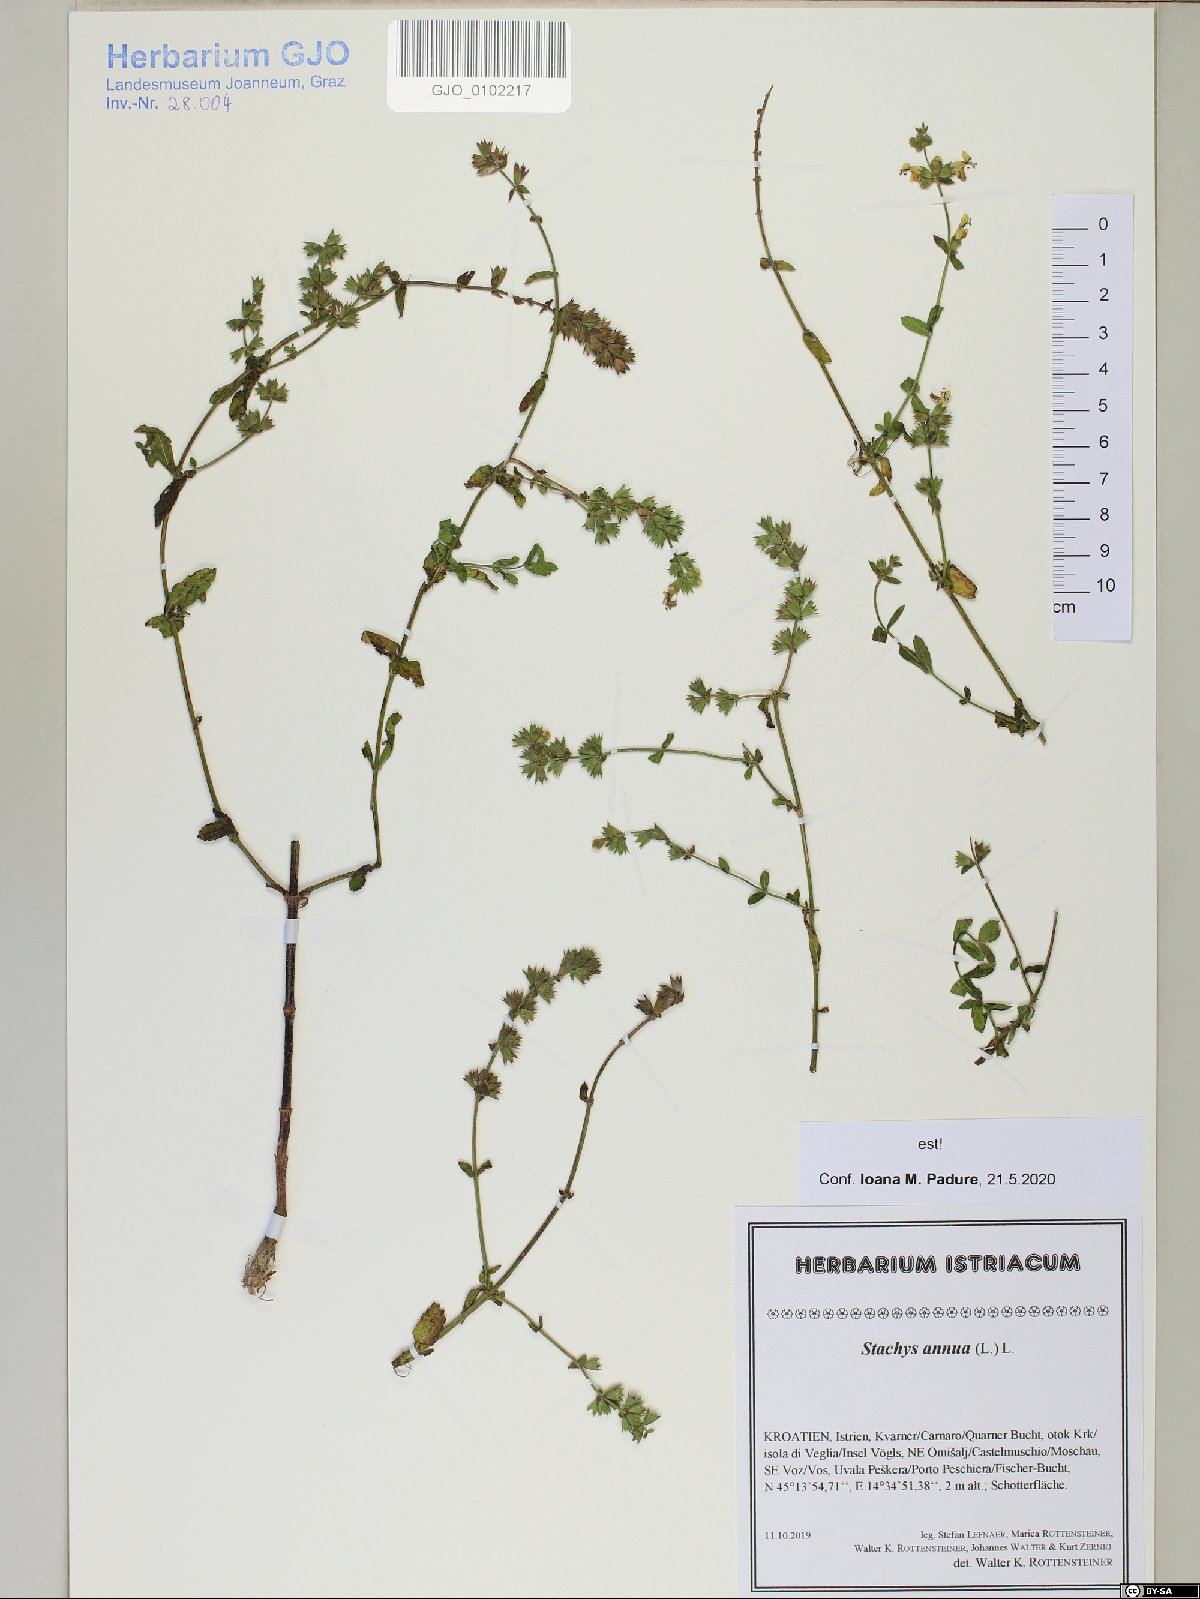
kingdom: Plantae
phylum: Tracheophyta
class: Magnoliopsida
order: Lamiales
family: Lamiaceae
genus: Stachys
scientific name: Stachys annua
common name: Annual yellow-woundwort
